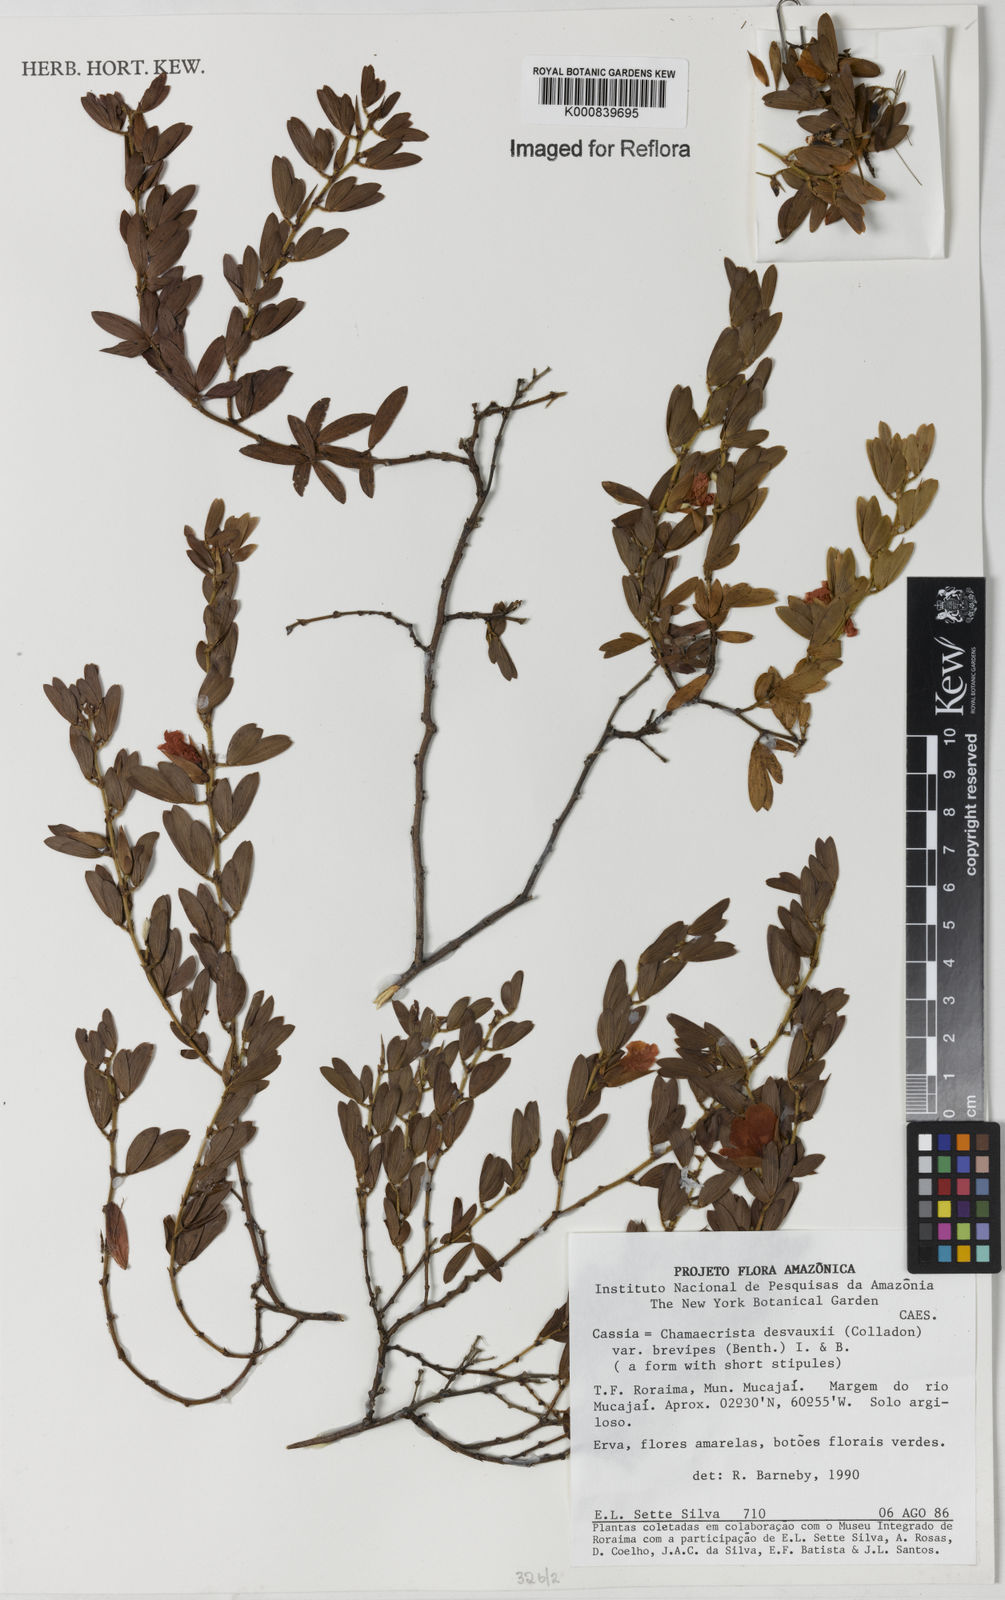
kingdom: Plantae
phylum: Tracheophyta
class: Magnoliopsida
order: Fabales
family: Fabaceae
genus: Chamaecrista
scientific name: Chamaecrista desvauxii
